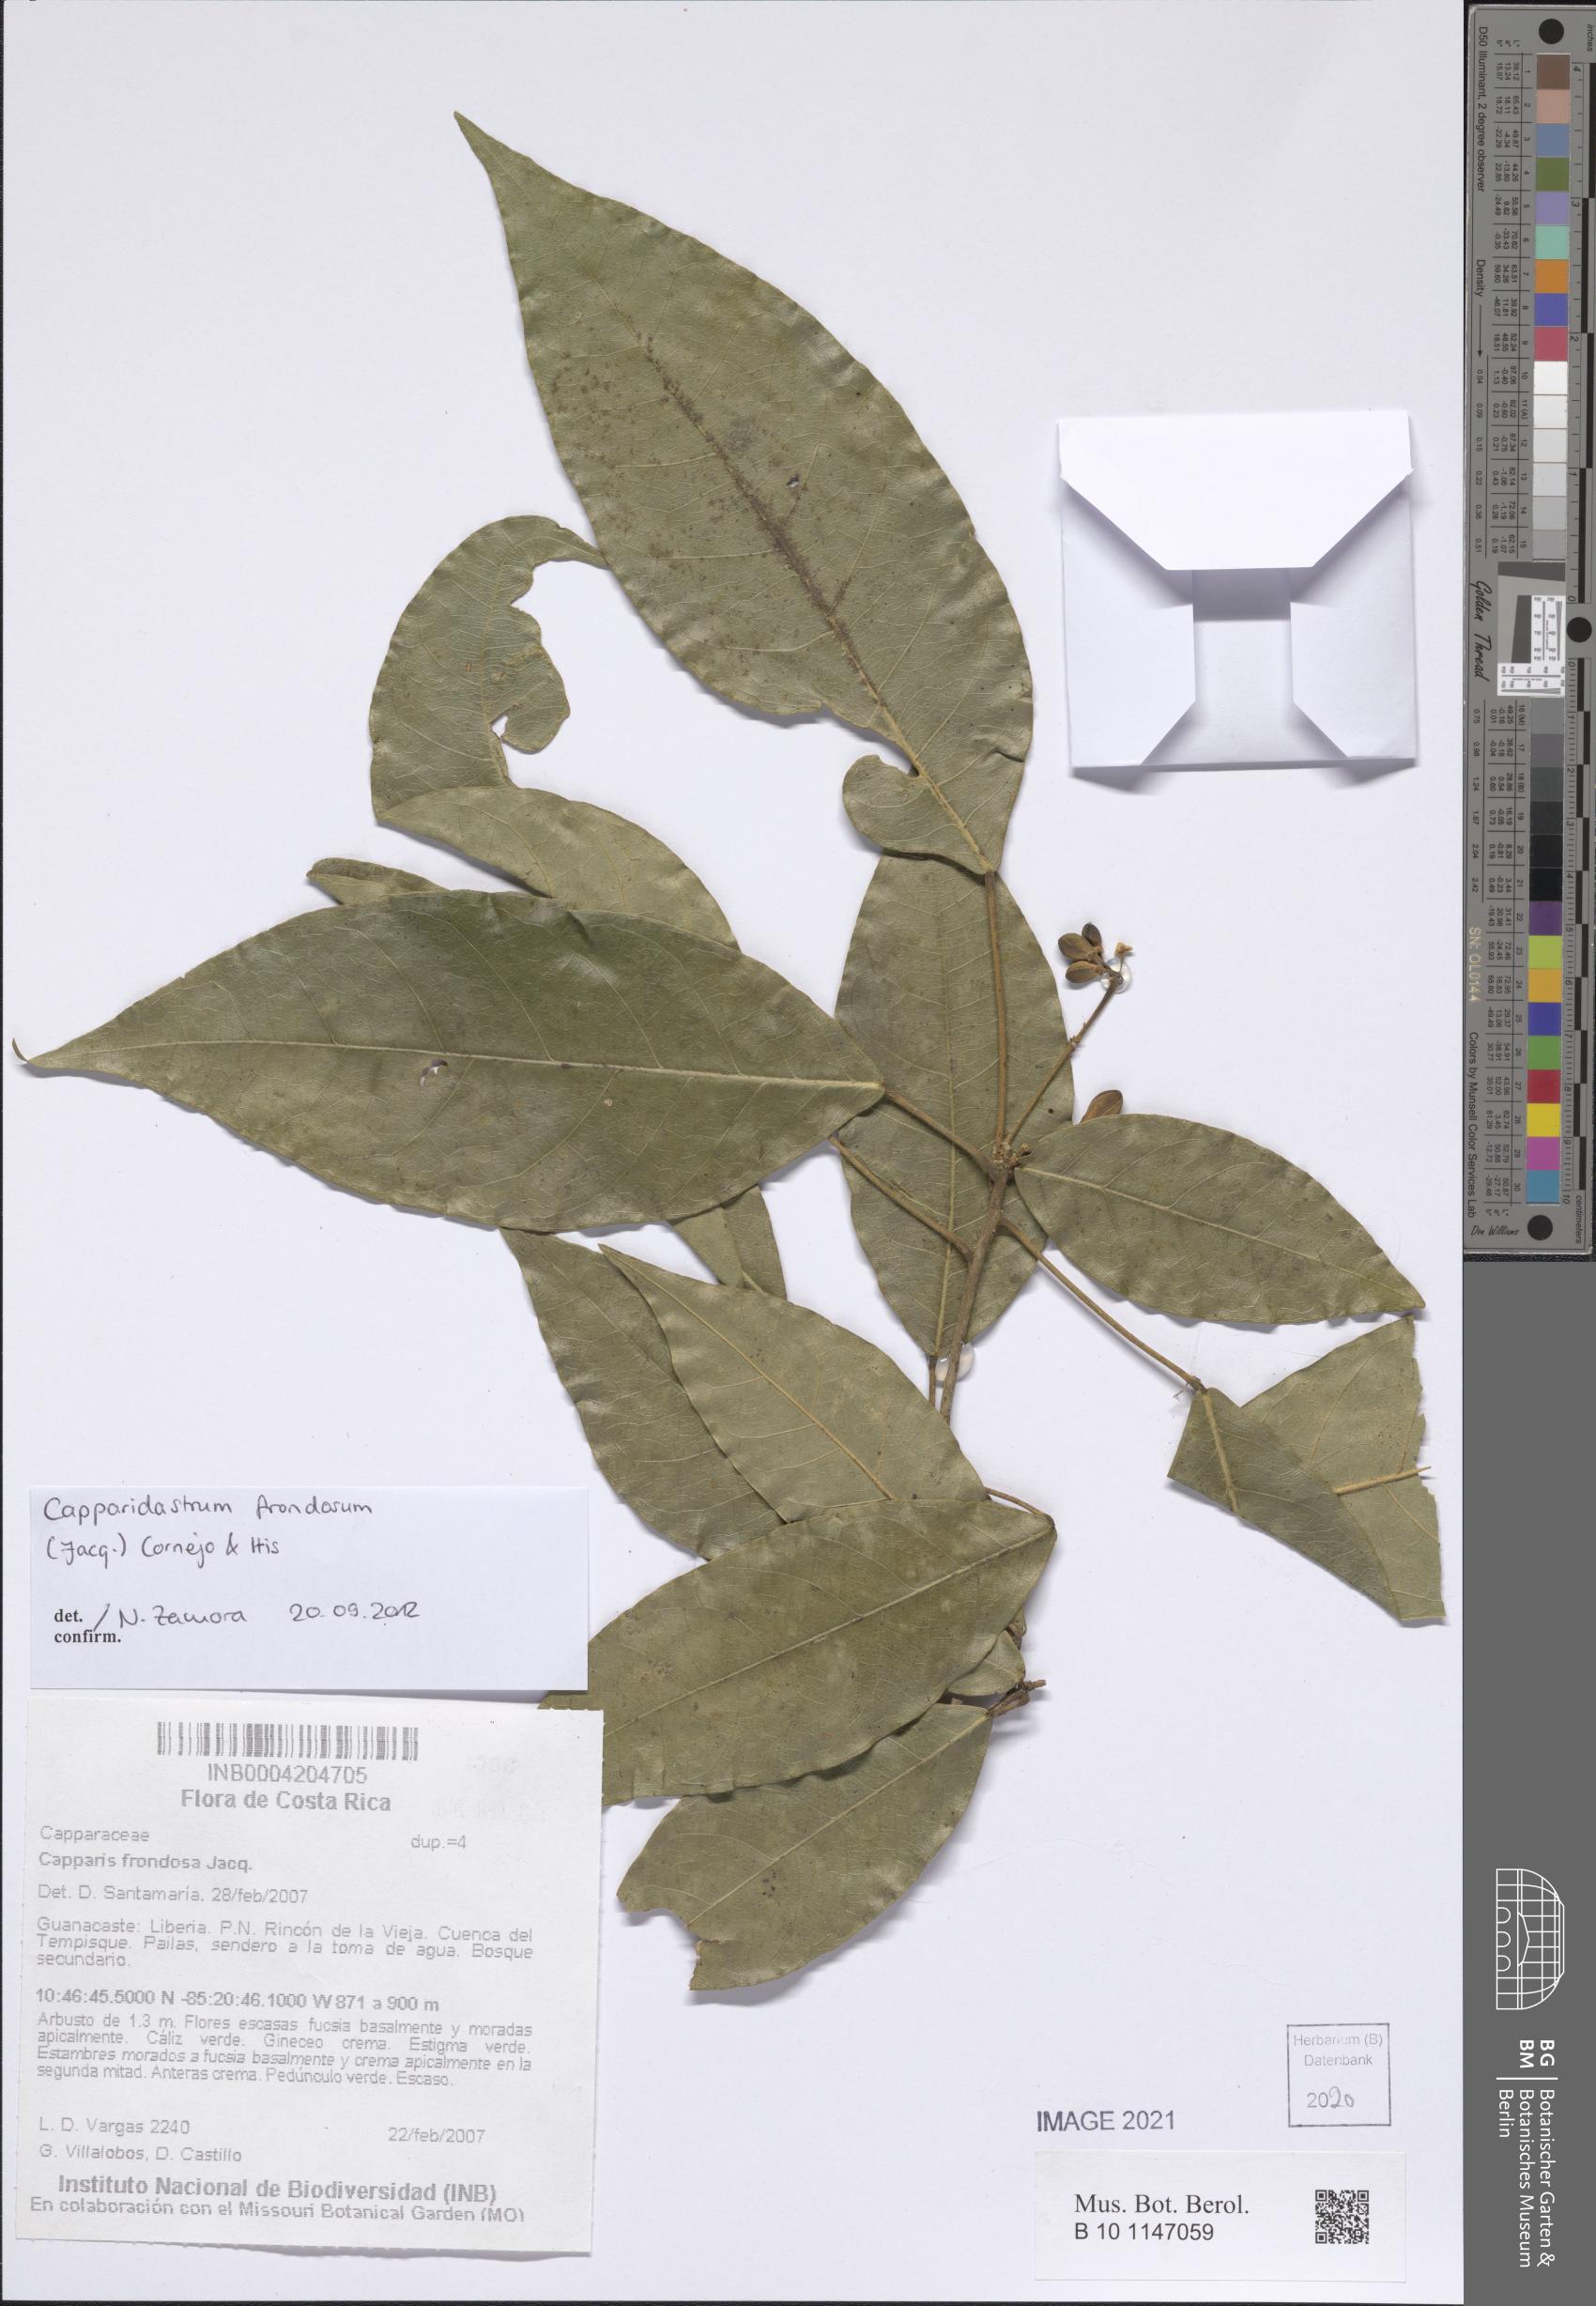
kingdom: Plantae
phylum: Tracheophyta
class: Magnoliopsida
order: Brassicales
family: Capparaceae
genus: Capparidastrum
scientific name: Capparidastrum frondosum
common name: Church blossom
